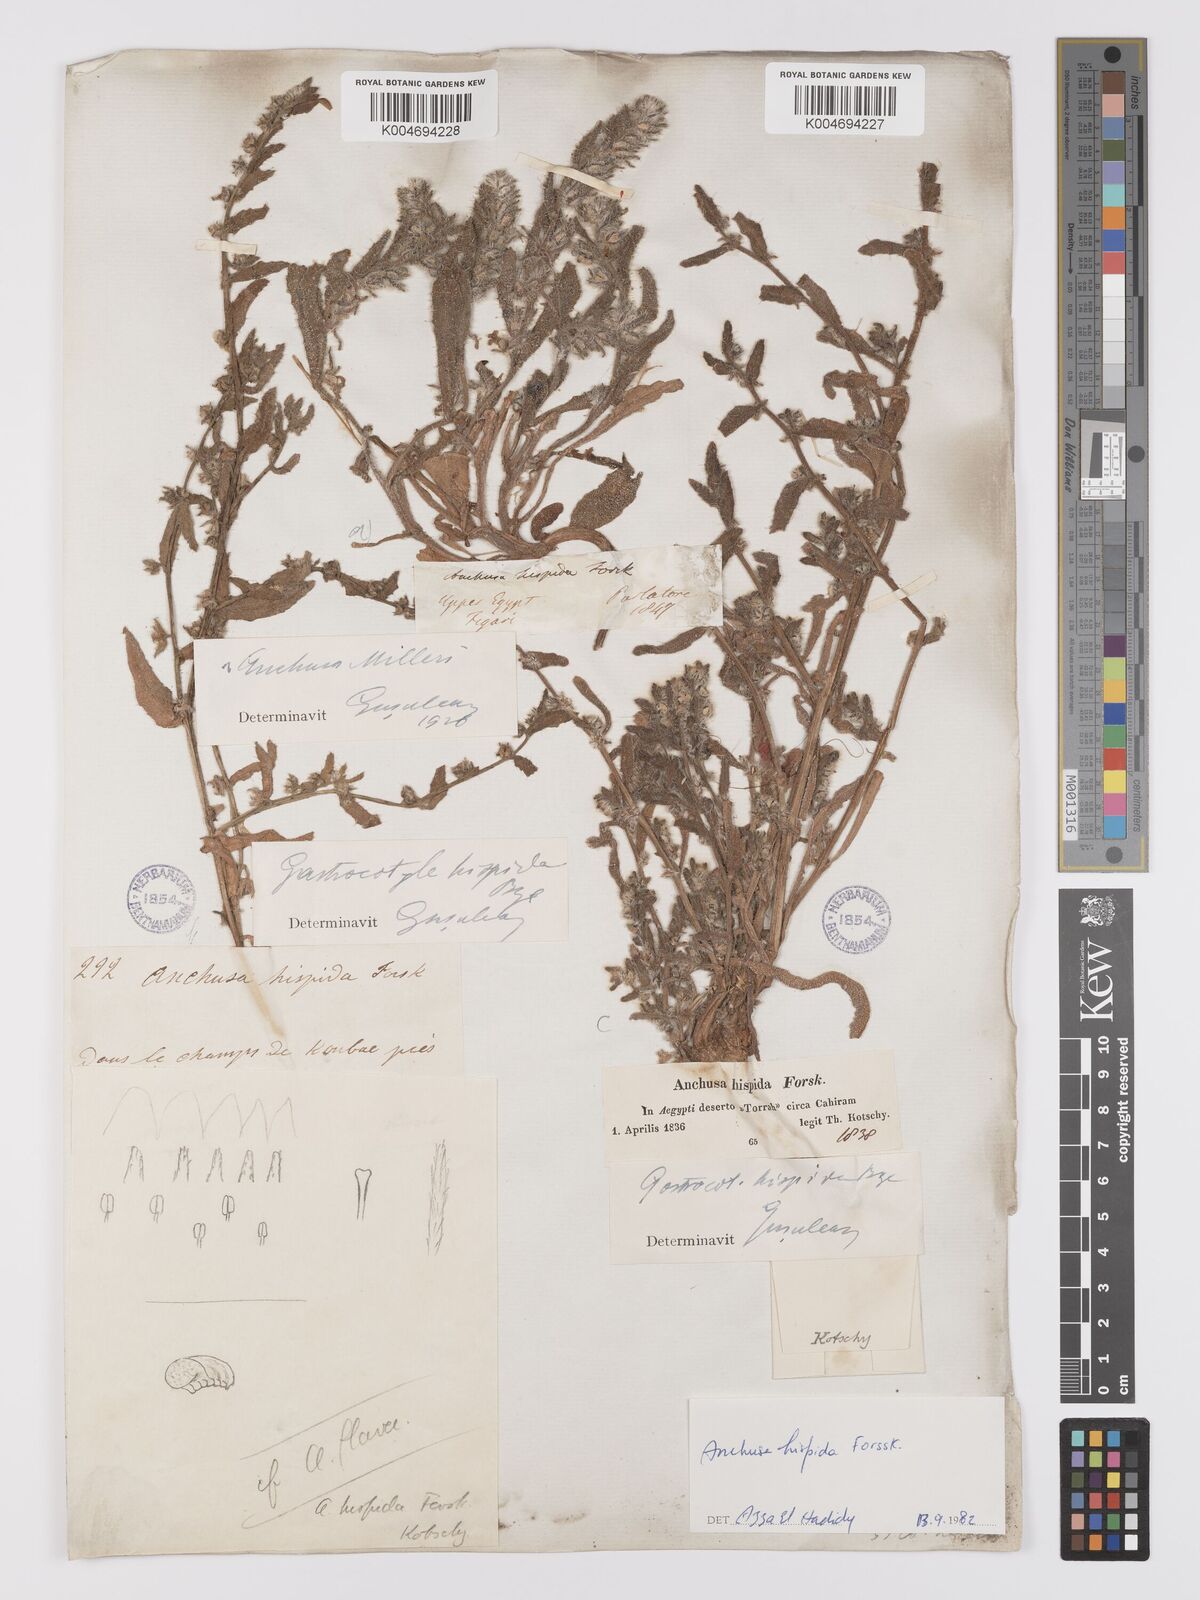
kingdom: Plantae
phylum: Tracheophyta
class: Magnoliopsida
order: Boraginales
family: Boraginaceae
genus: Gastrocotyle
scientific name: Gastrocotyle hispida
